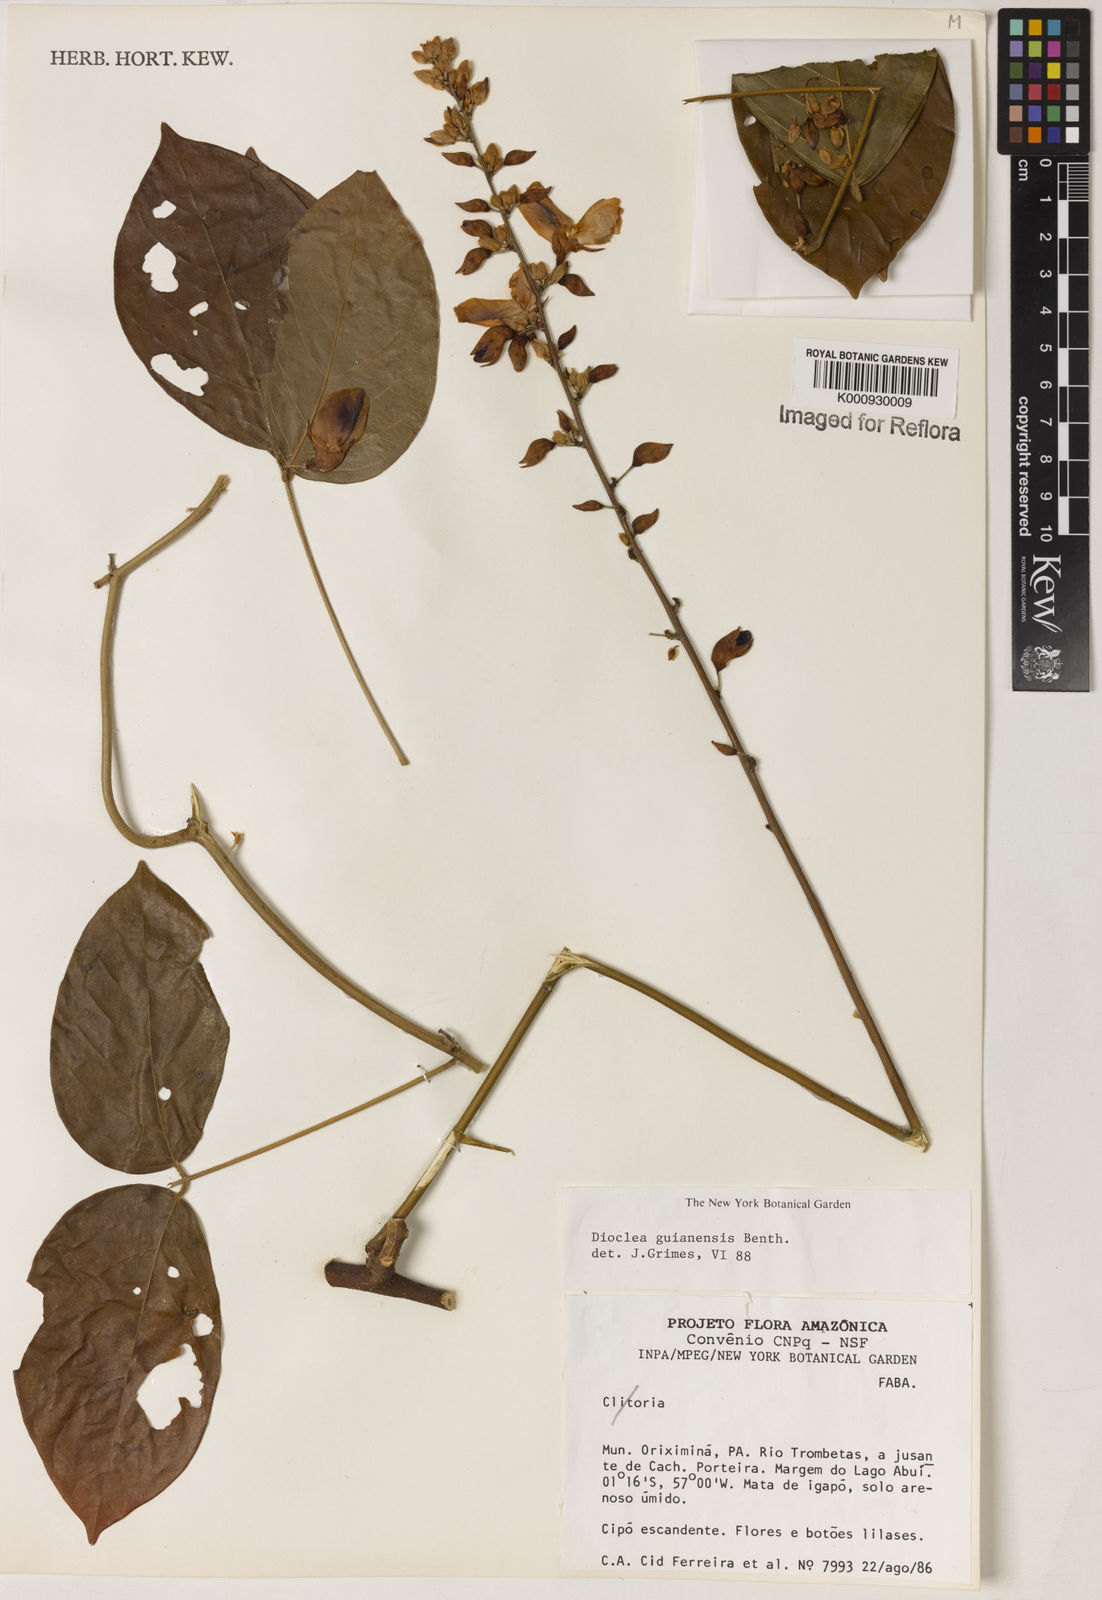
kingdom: Plantae
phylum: Tracheophyta
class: Magnoliopsida
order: Fabales
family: Fabaceae
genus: Dioclea
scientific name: Dioclea guianensis
